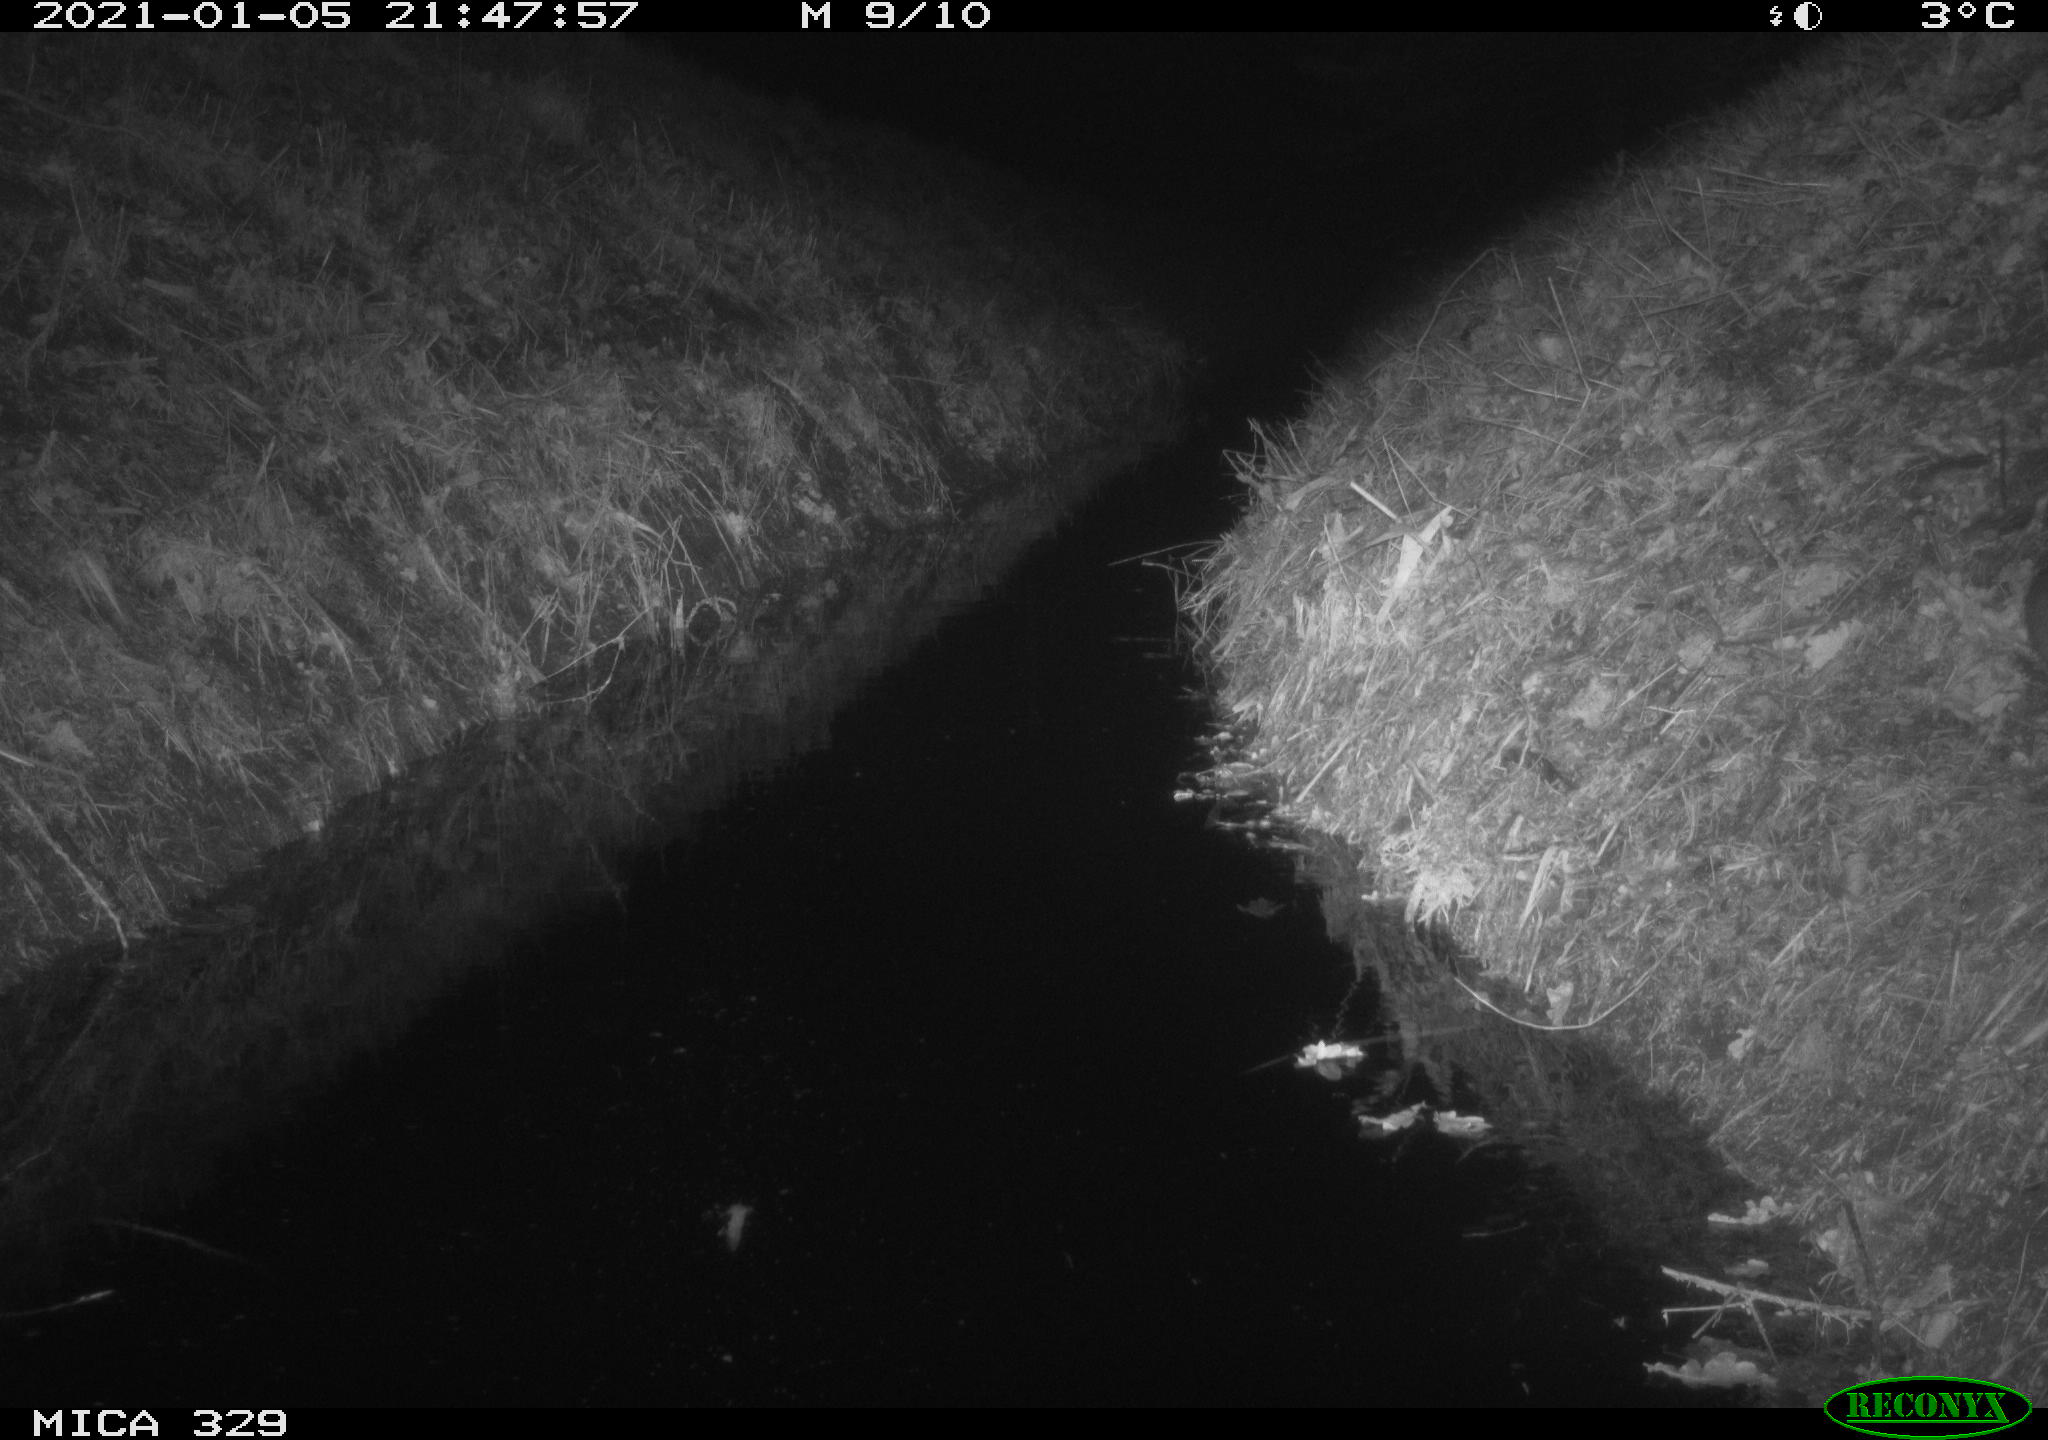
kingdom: Animalia
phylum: Chordata
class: Mammalia
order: Rodentia
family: Muridae
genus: Rattus
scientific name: Rattus norvegicus
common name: Brown rat
